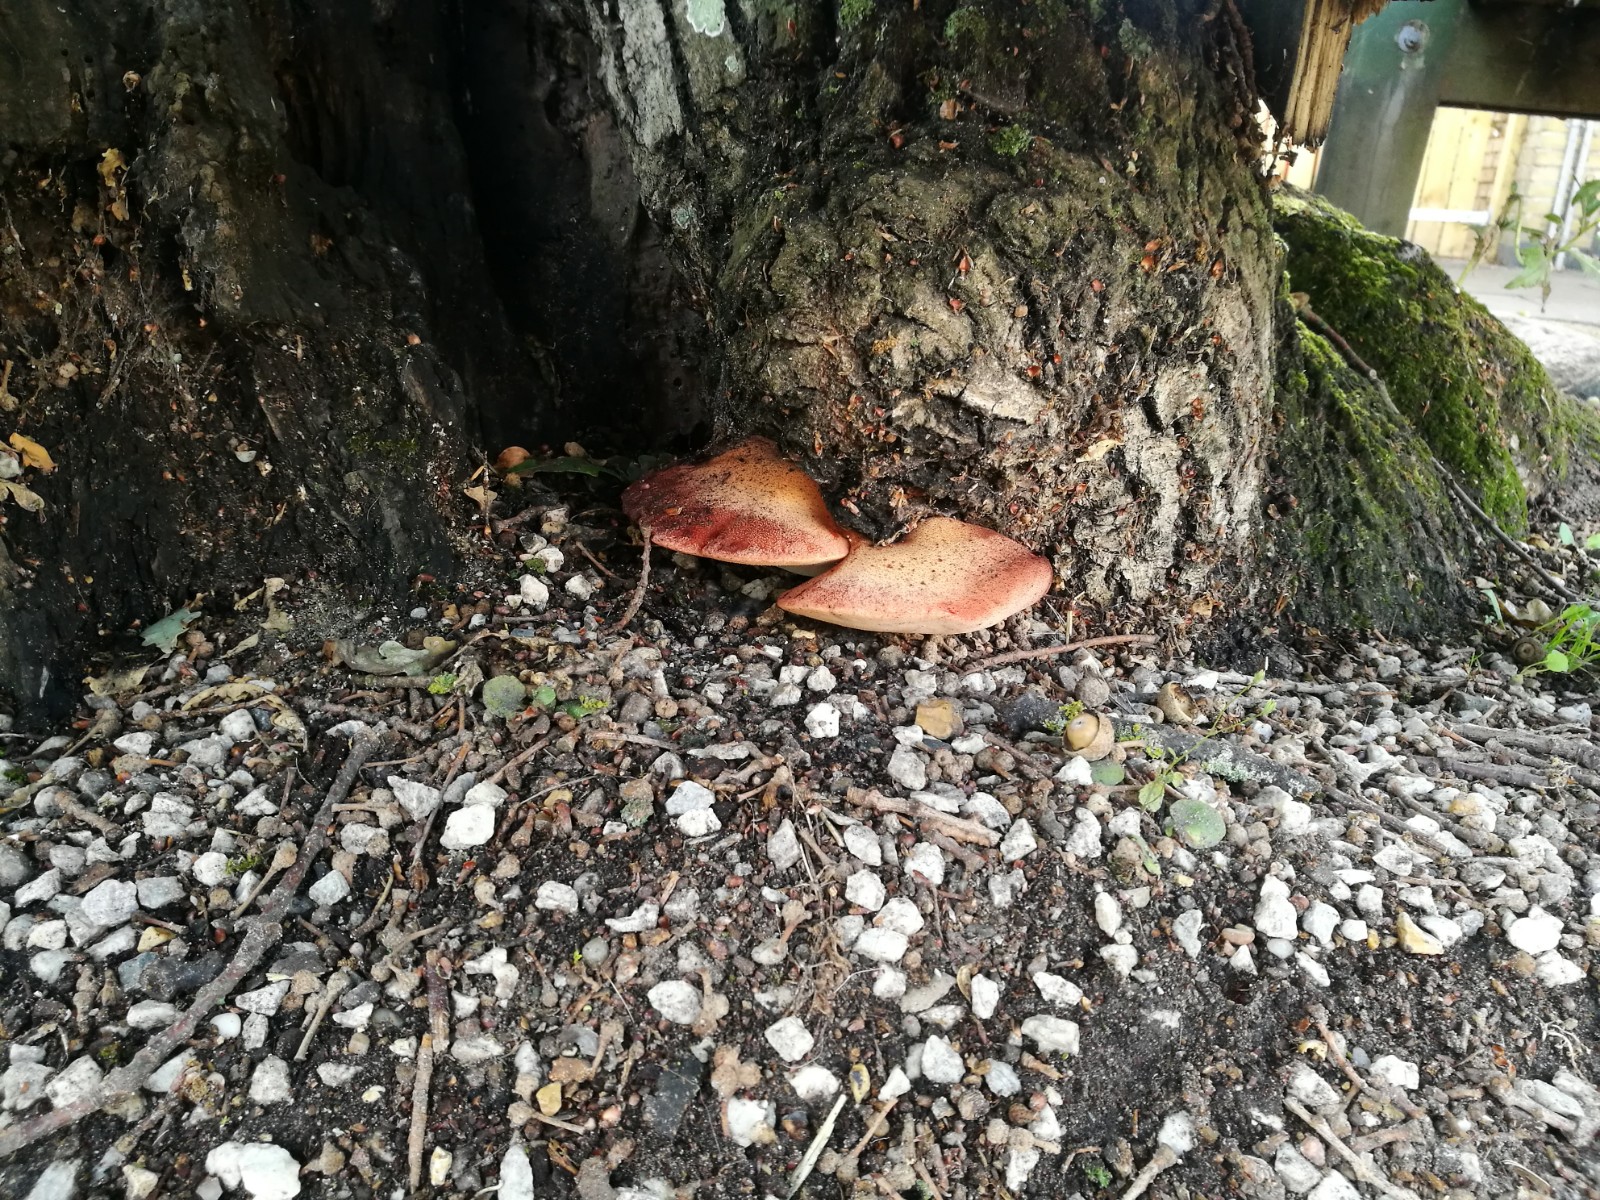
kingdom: Fungi
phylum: Basidiomycota
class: Agaricomycetes
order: Agaricales
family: Fistulinaceae
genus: Fistulina
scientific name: Fistulina hepatica
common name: oksetunge
